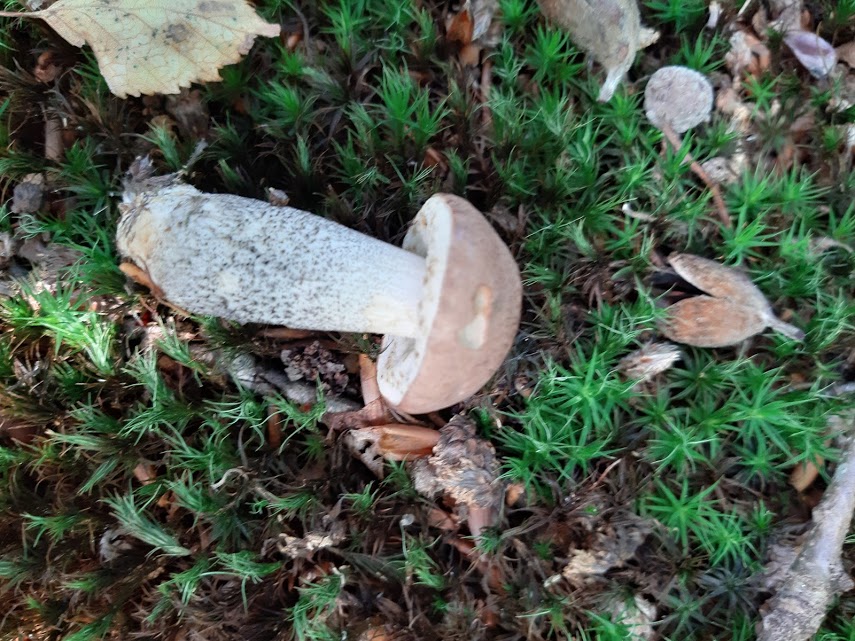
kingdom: Fungi
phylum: Basidiomycota
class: Agaricomycetes
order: Boletales
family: Boletaceae
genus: Leccinum
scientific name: Leccinum scabrum
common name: brun skælrørhat
